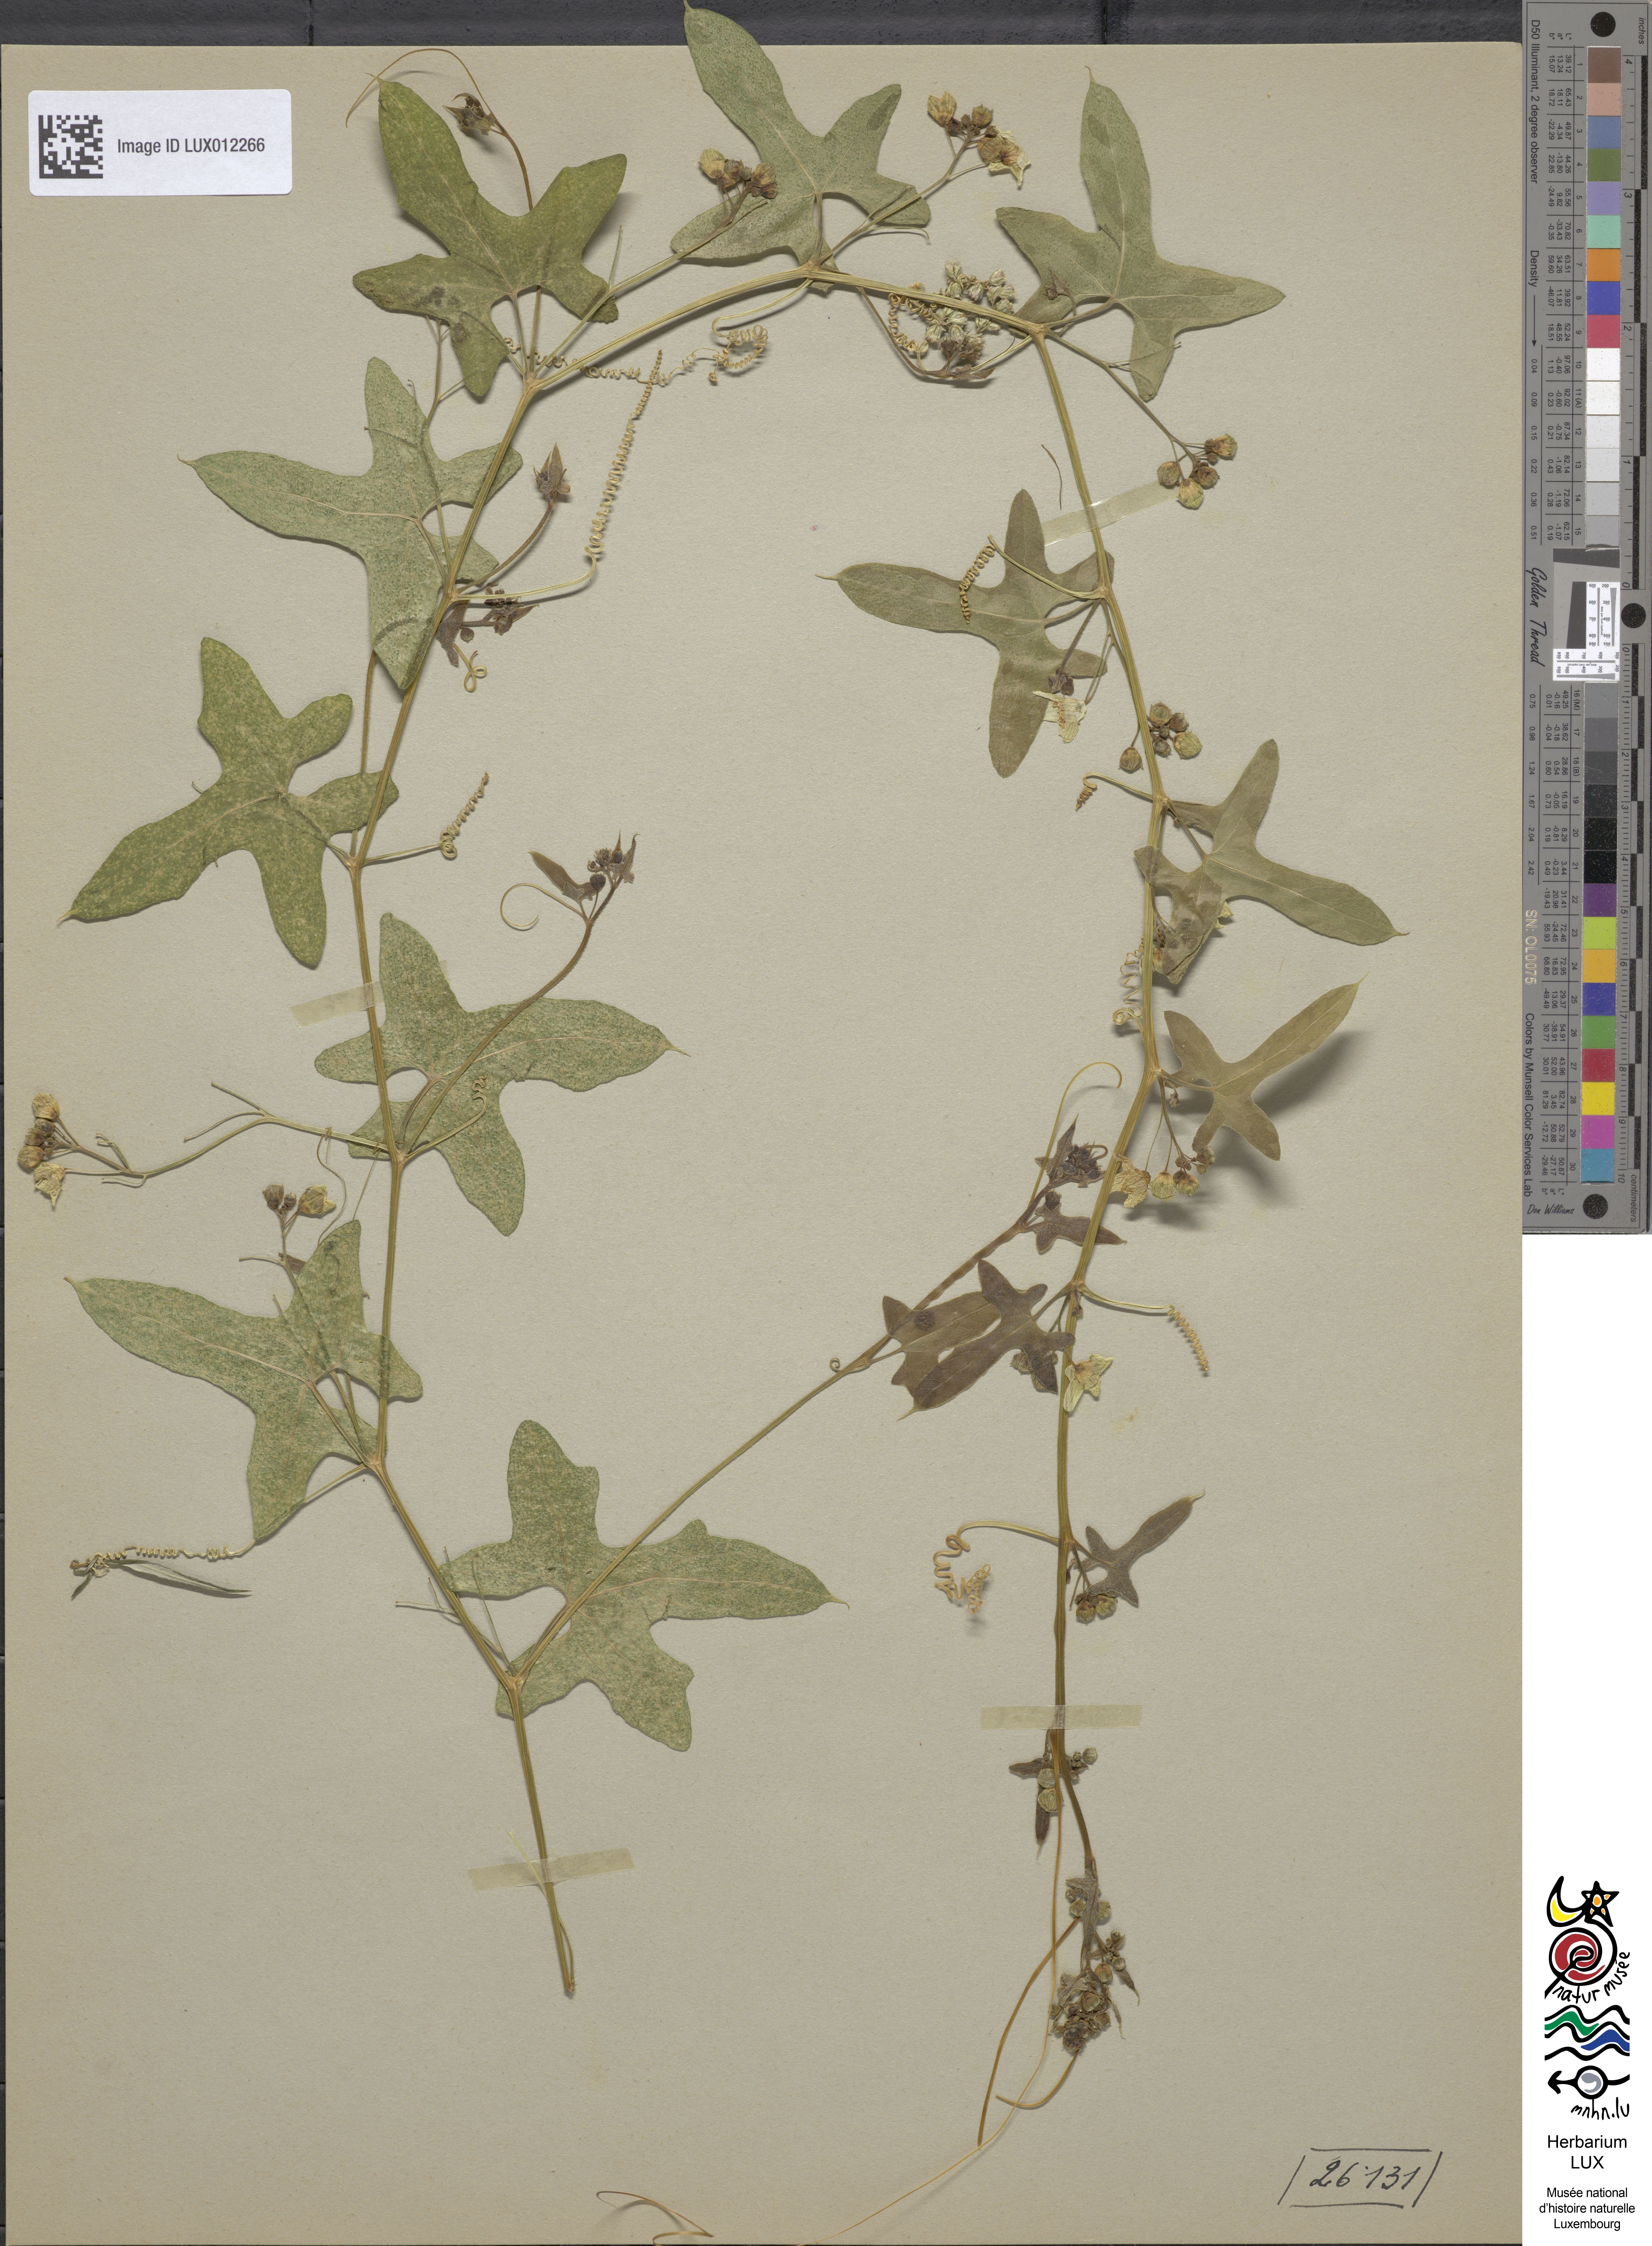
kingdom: Plantae
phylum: Tracheophyta
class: Magnoliopsida
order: Cucurbitales
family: Cucurbitaceae
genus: Bryonia
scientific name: Bryonia dioica
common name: White bryony
